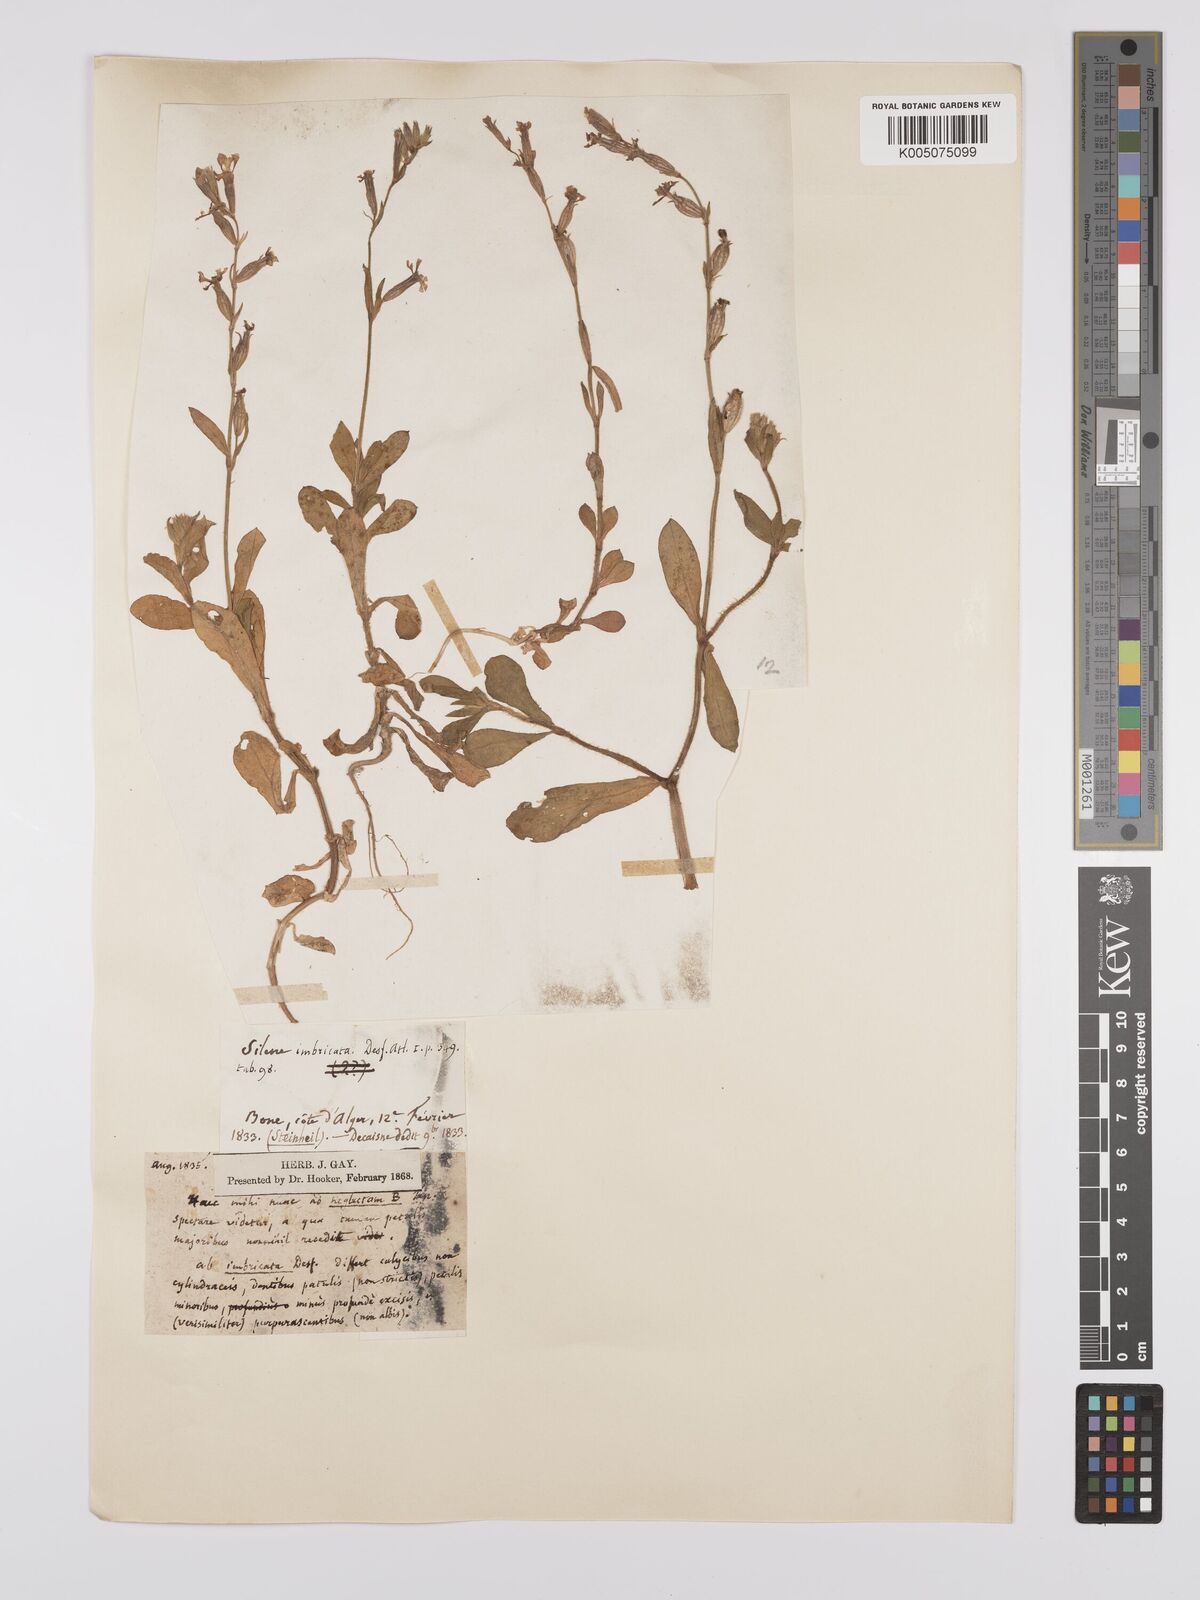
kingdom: Plantae
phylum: Tracheophyta
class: Magnoliopsida
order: Caryophyllales
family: Caryophyllaceae
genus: Silene
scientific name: Silene neglecta
